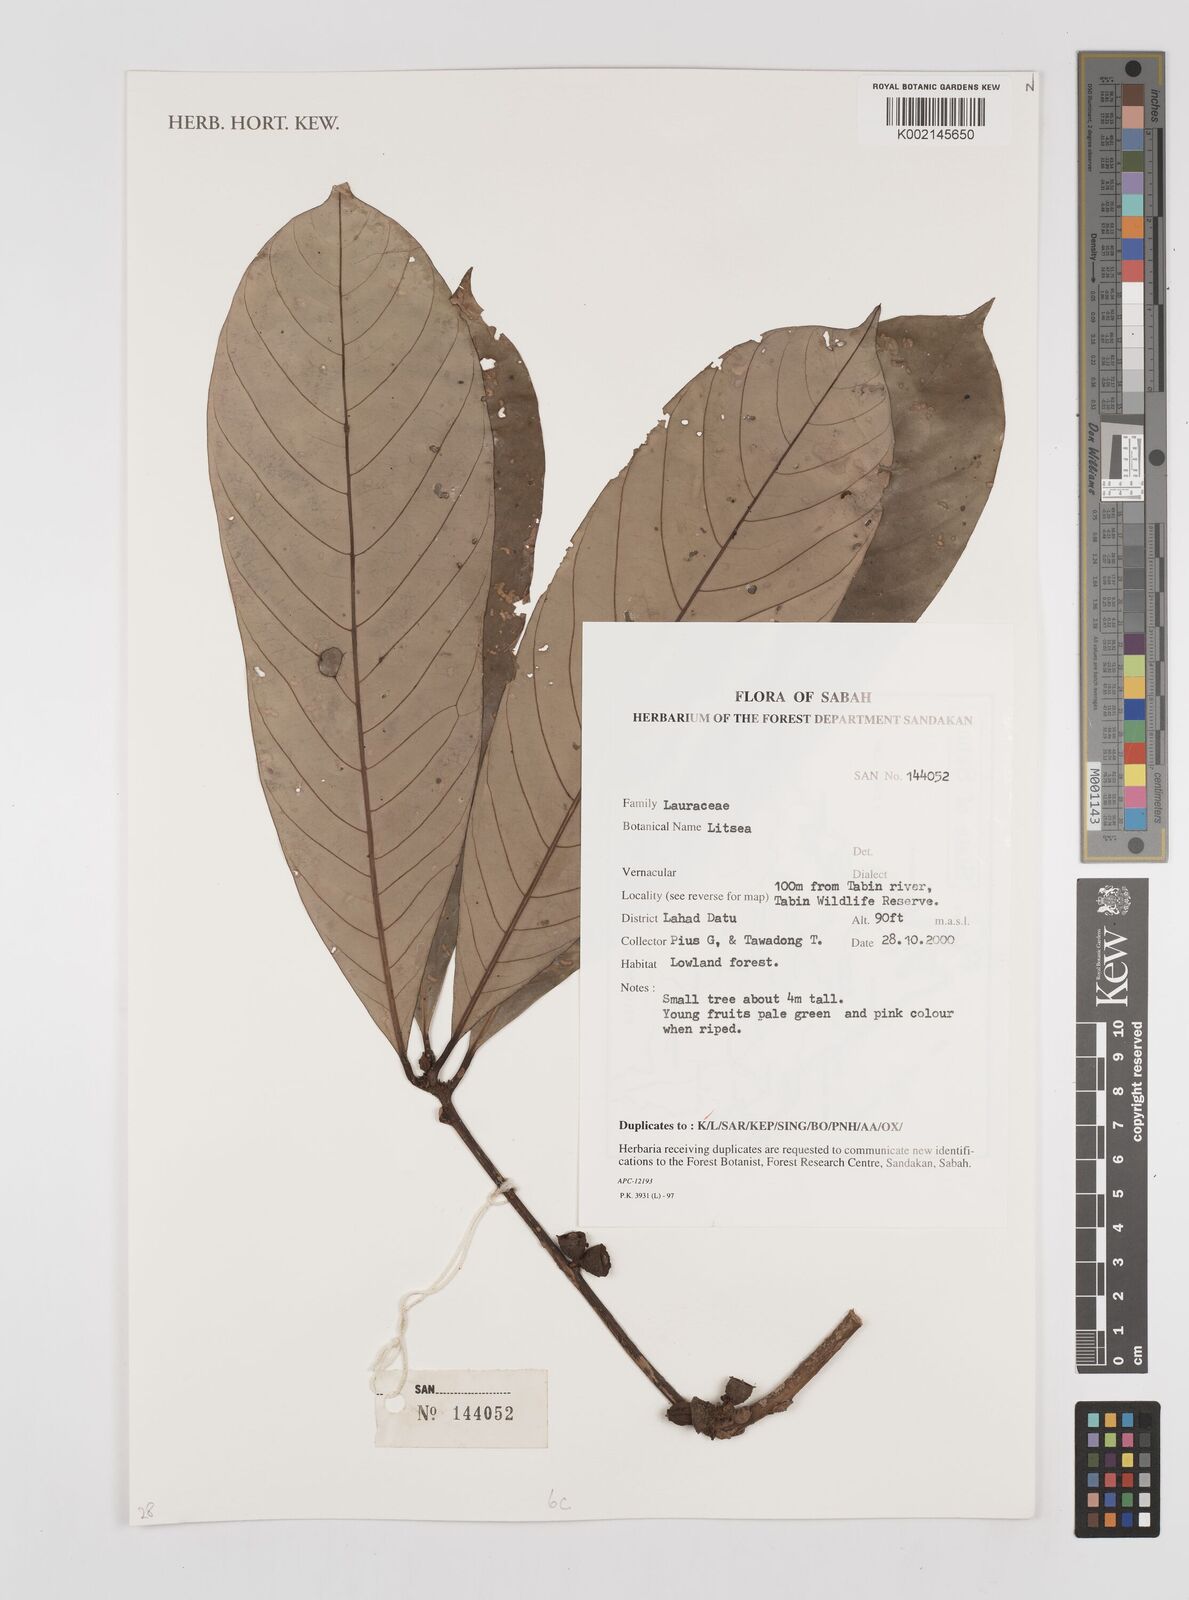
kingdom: Plantae
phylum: Tracheophyta
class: Magnoliopsida
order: Laurales
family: Lauraceae
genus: Litsea
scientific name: Litsea
